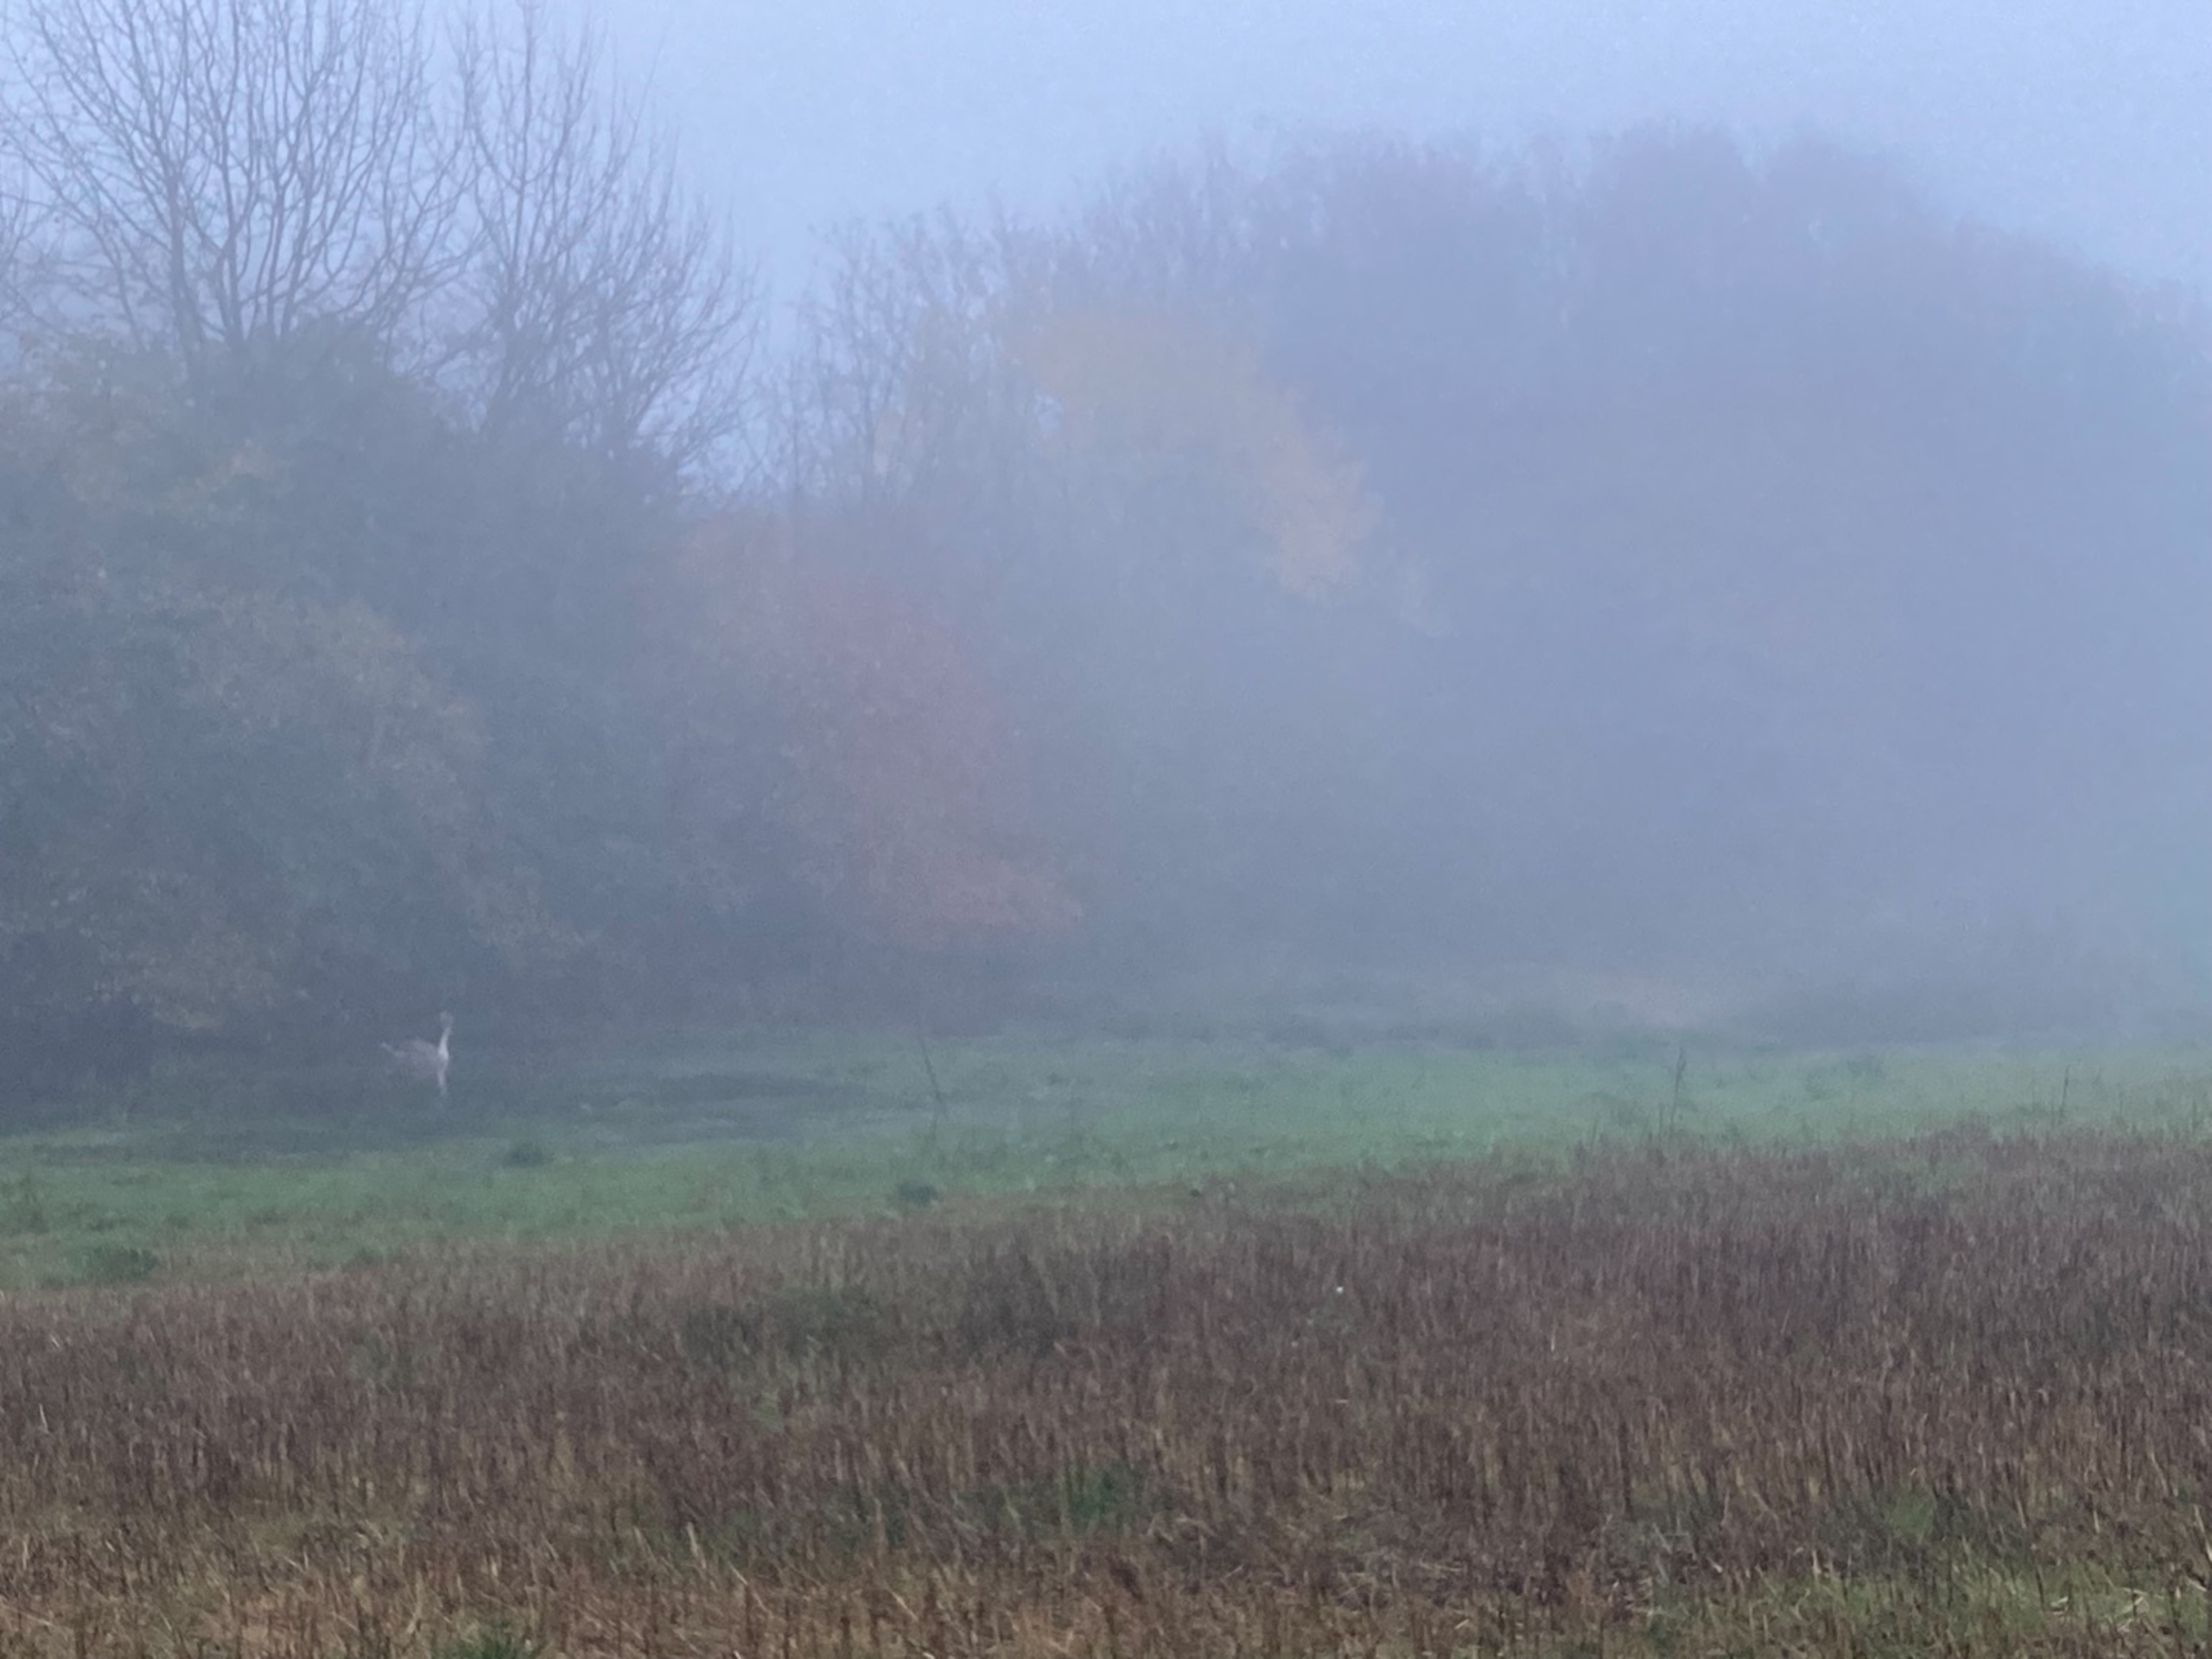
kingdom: Animalia
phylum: Chordata
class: Aves
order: Anseriformes
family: Anatidae
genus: Cygnus
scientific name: Cygnus olor
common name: Knopsvane
